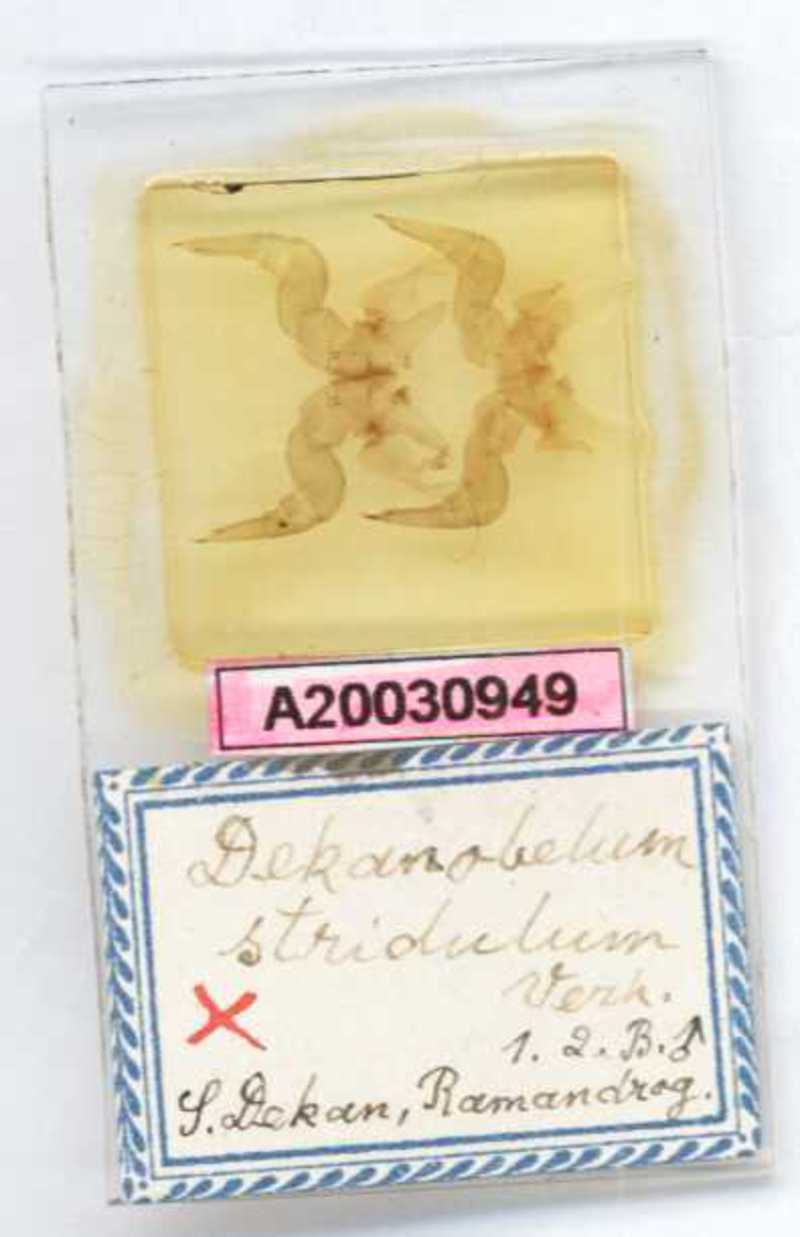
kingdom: Animalia
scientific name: Animalia
